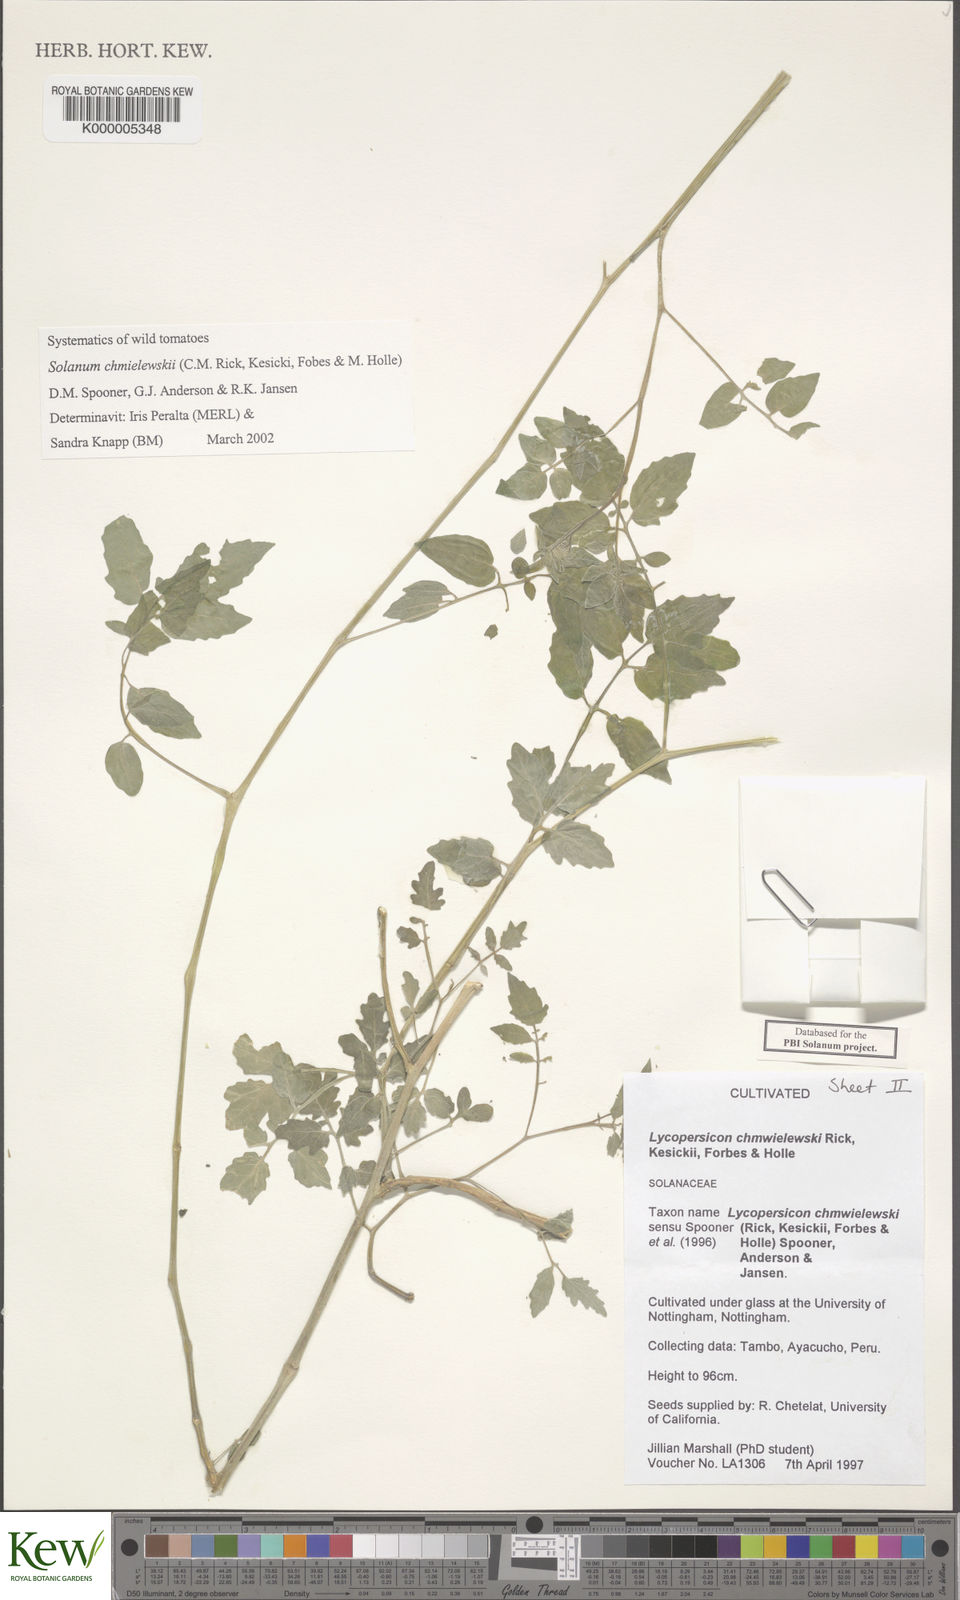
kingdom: Plantae
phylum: Tracheophyta
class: Magnoliopsida
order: Solanales
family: Solanaceae
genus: Solanum
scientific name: Solanum chmielewskii
